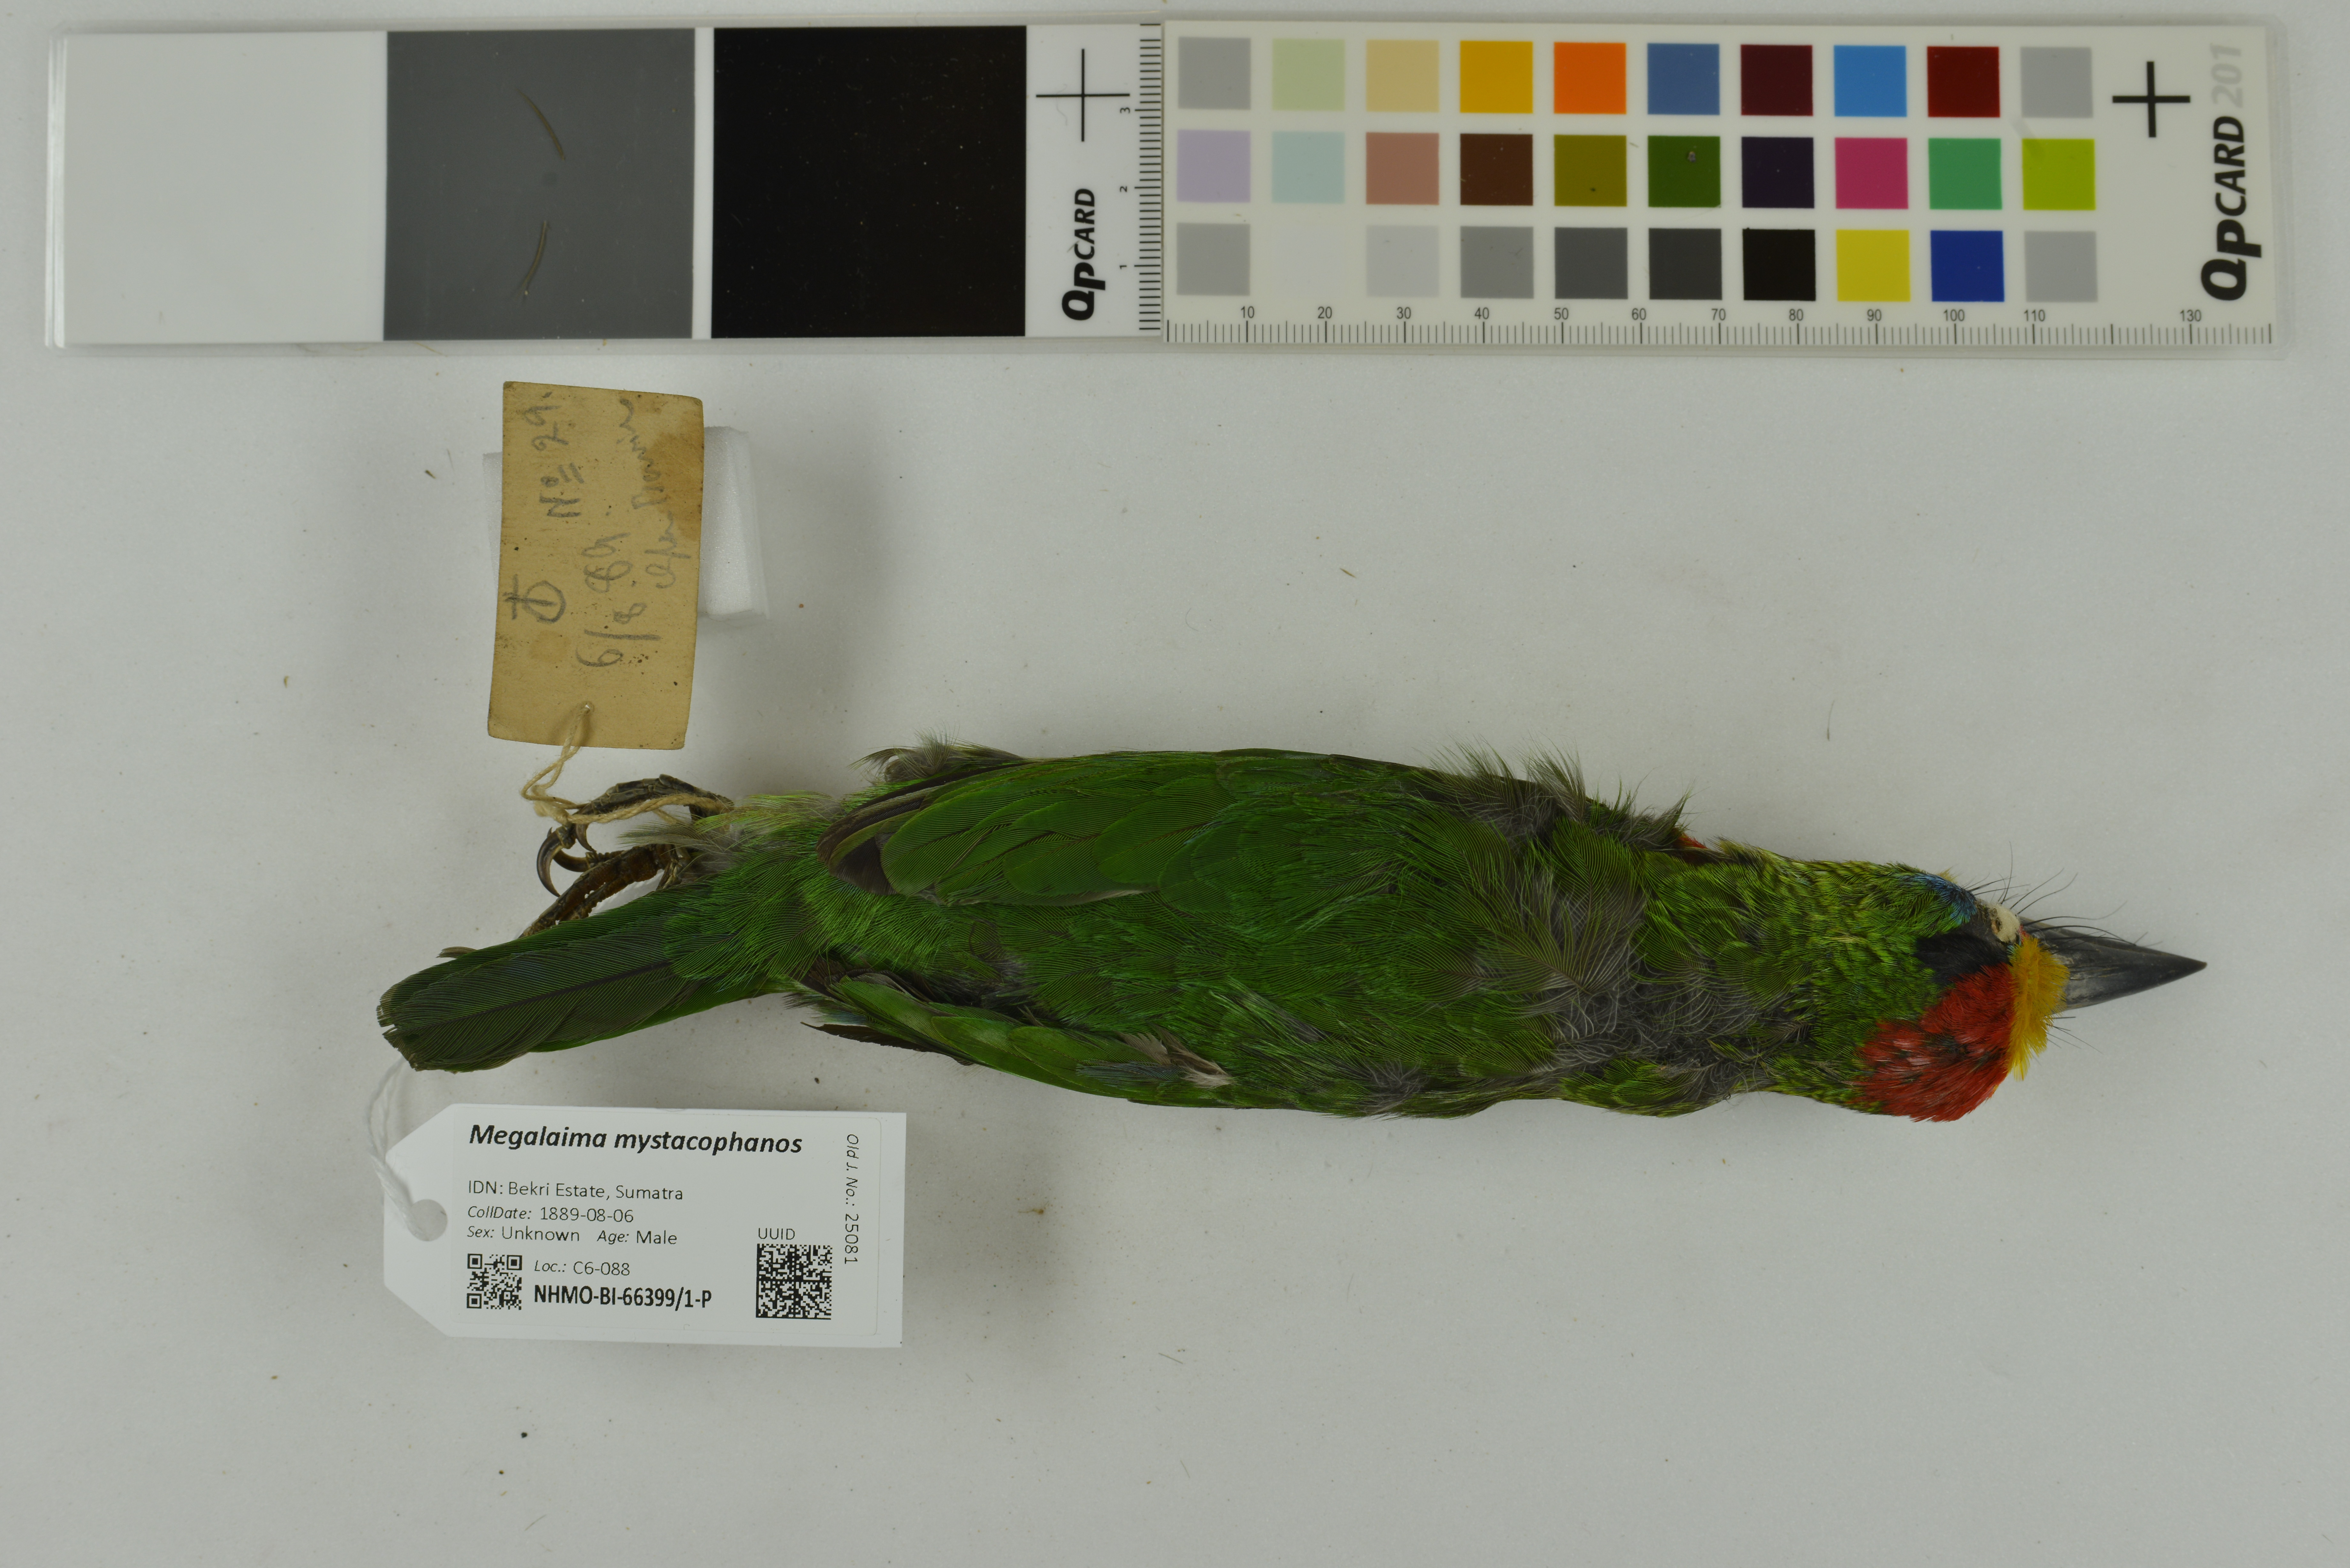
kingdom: Animalia
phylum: Chordata
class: Aves
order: Piciformes
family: Megalaimidae
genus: Psilopogon
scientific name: Psilopogon mystacophanos
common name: Red-throated barbet
